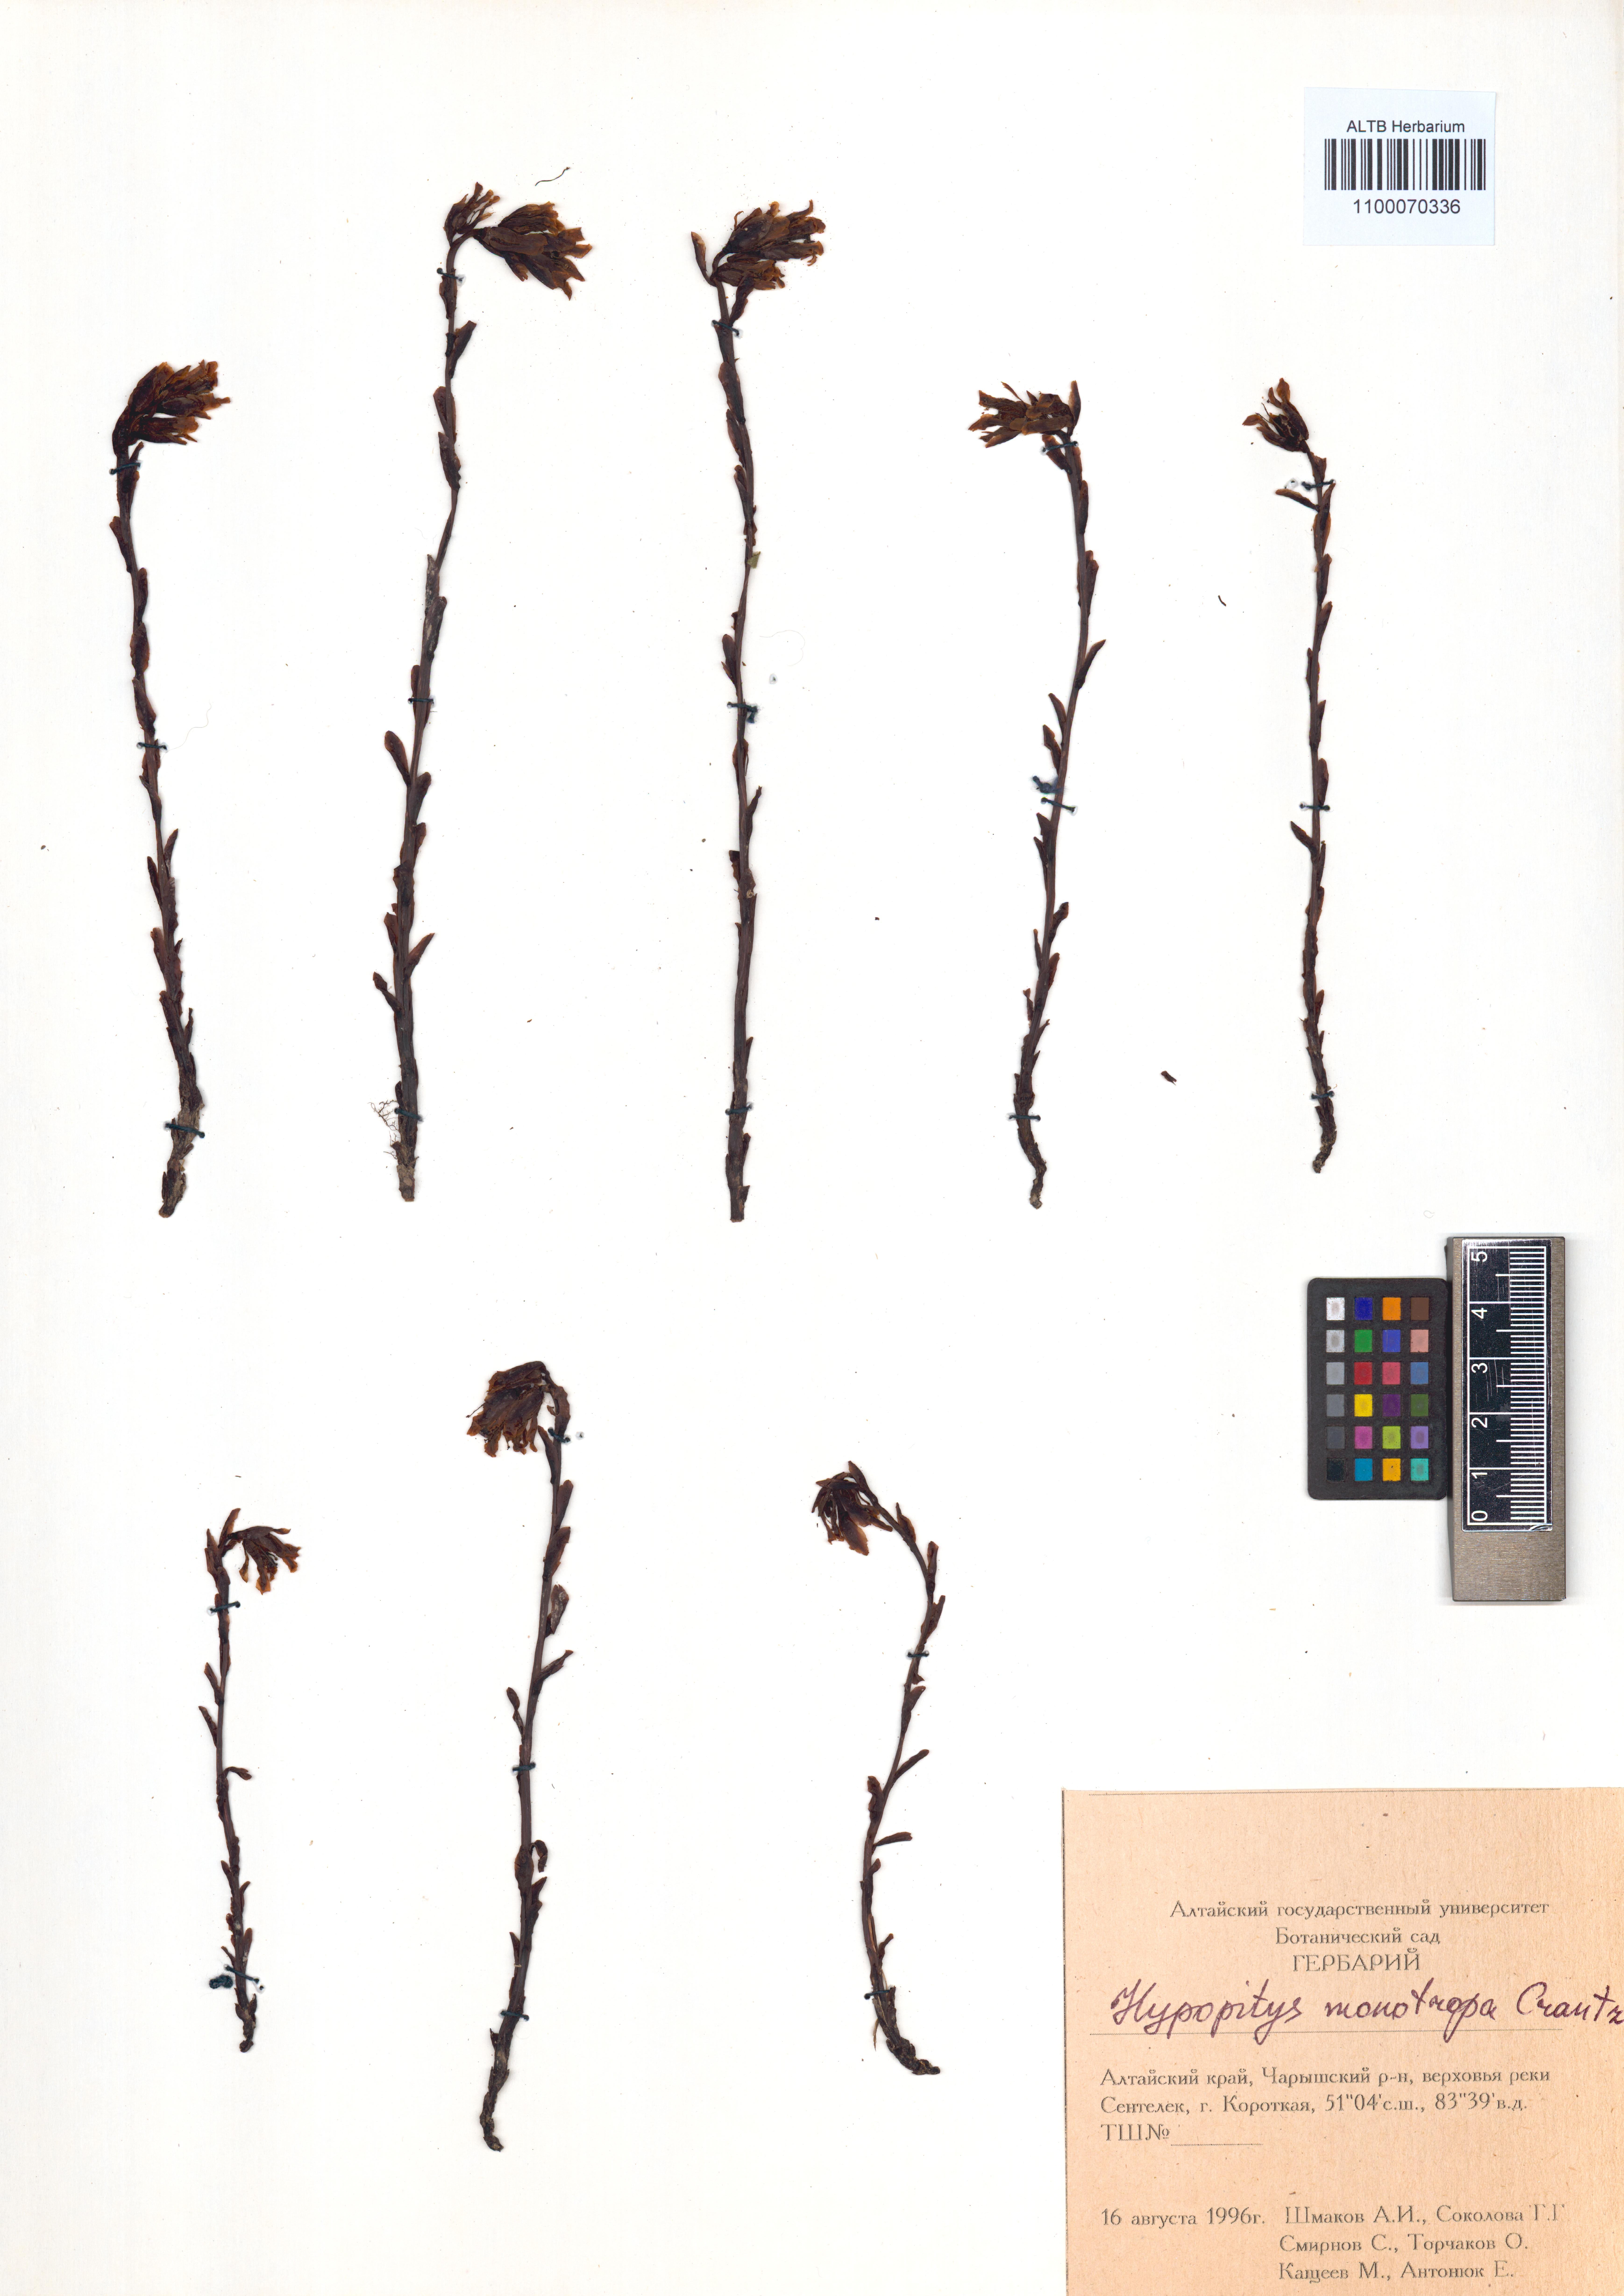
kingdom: Plantae
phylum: Tracheophyta
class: Magnoliopsida
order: Ericales
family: Ericaceae
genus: Hypopitys
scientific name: Hypopitys monotropa
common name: Yellow bird's-nest
